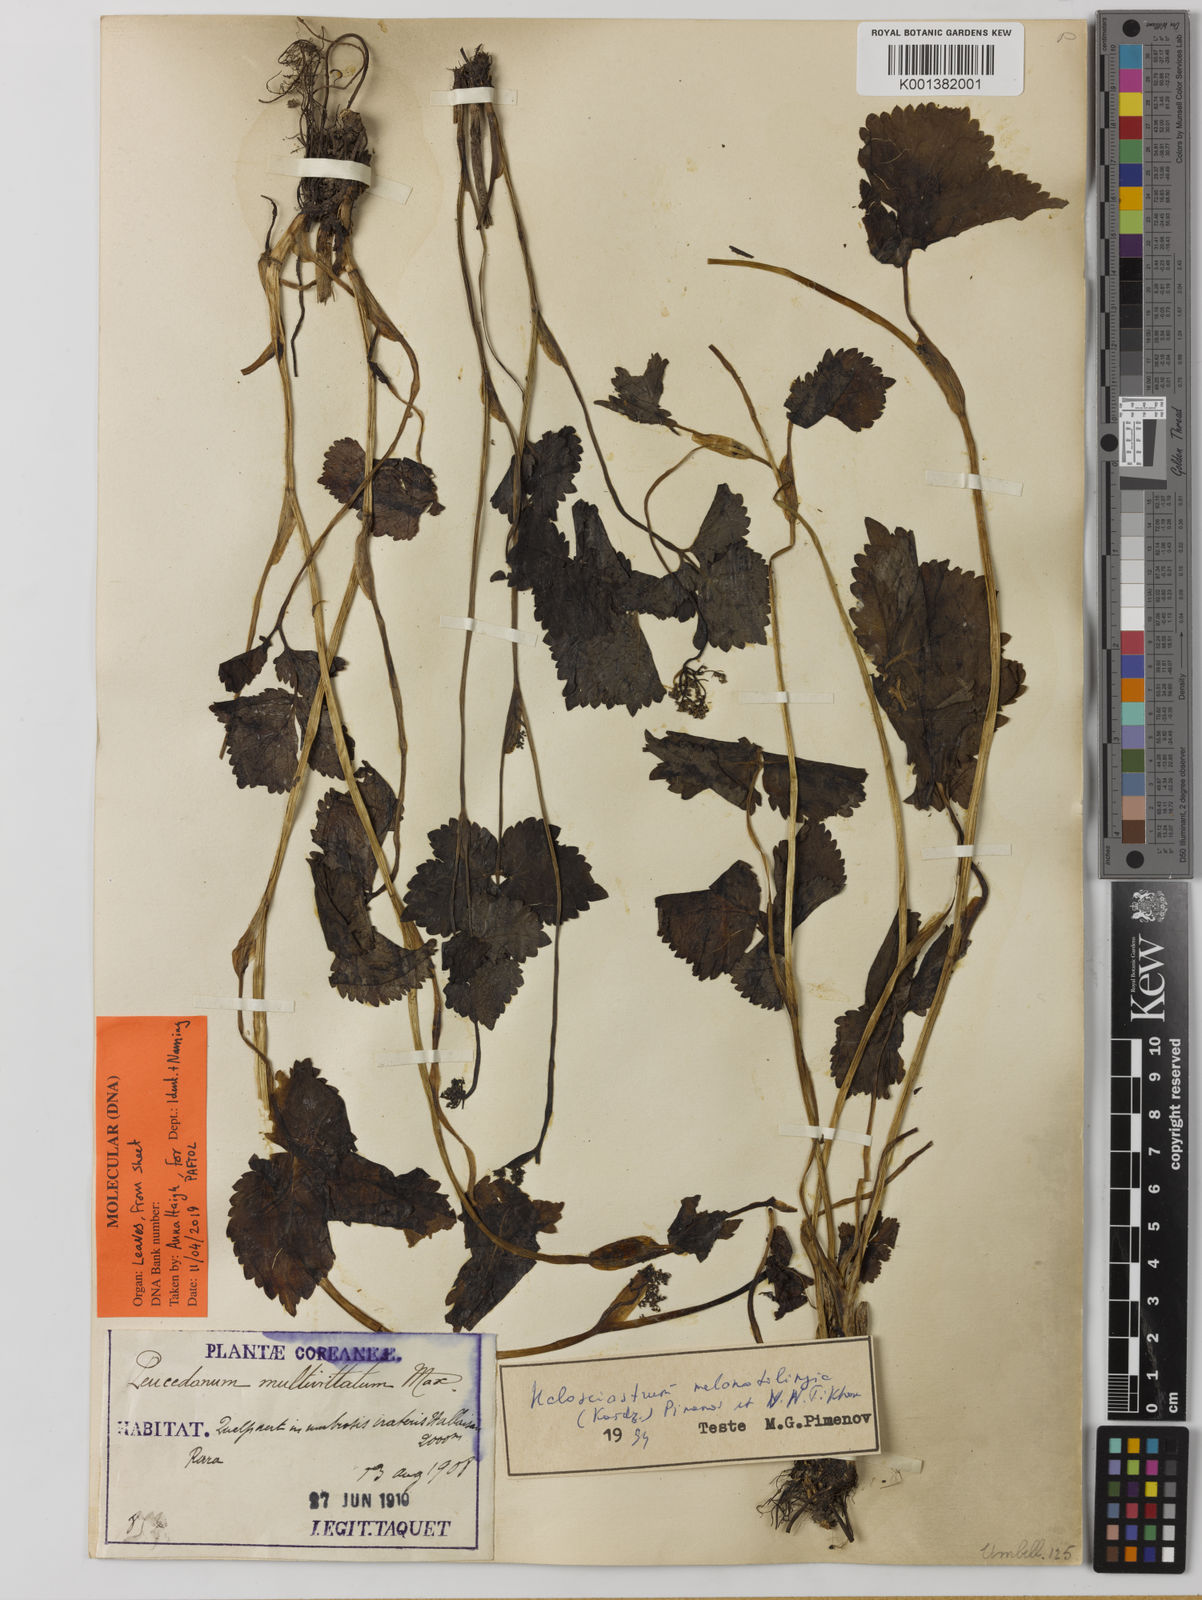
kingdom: Plantae
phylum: Tracheophyta
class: Magnoliopsida
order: Apiales
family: Apiaceae
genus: Halosciastrum
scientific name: Halosciastrum
